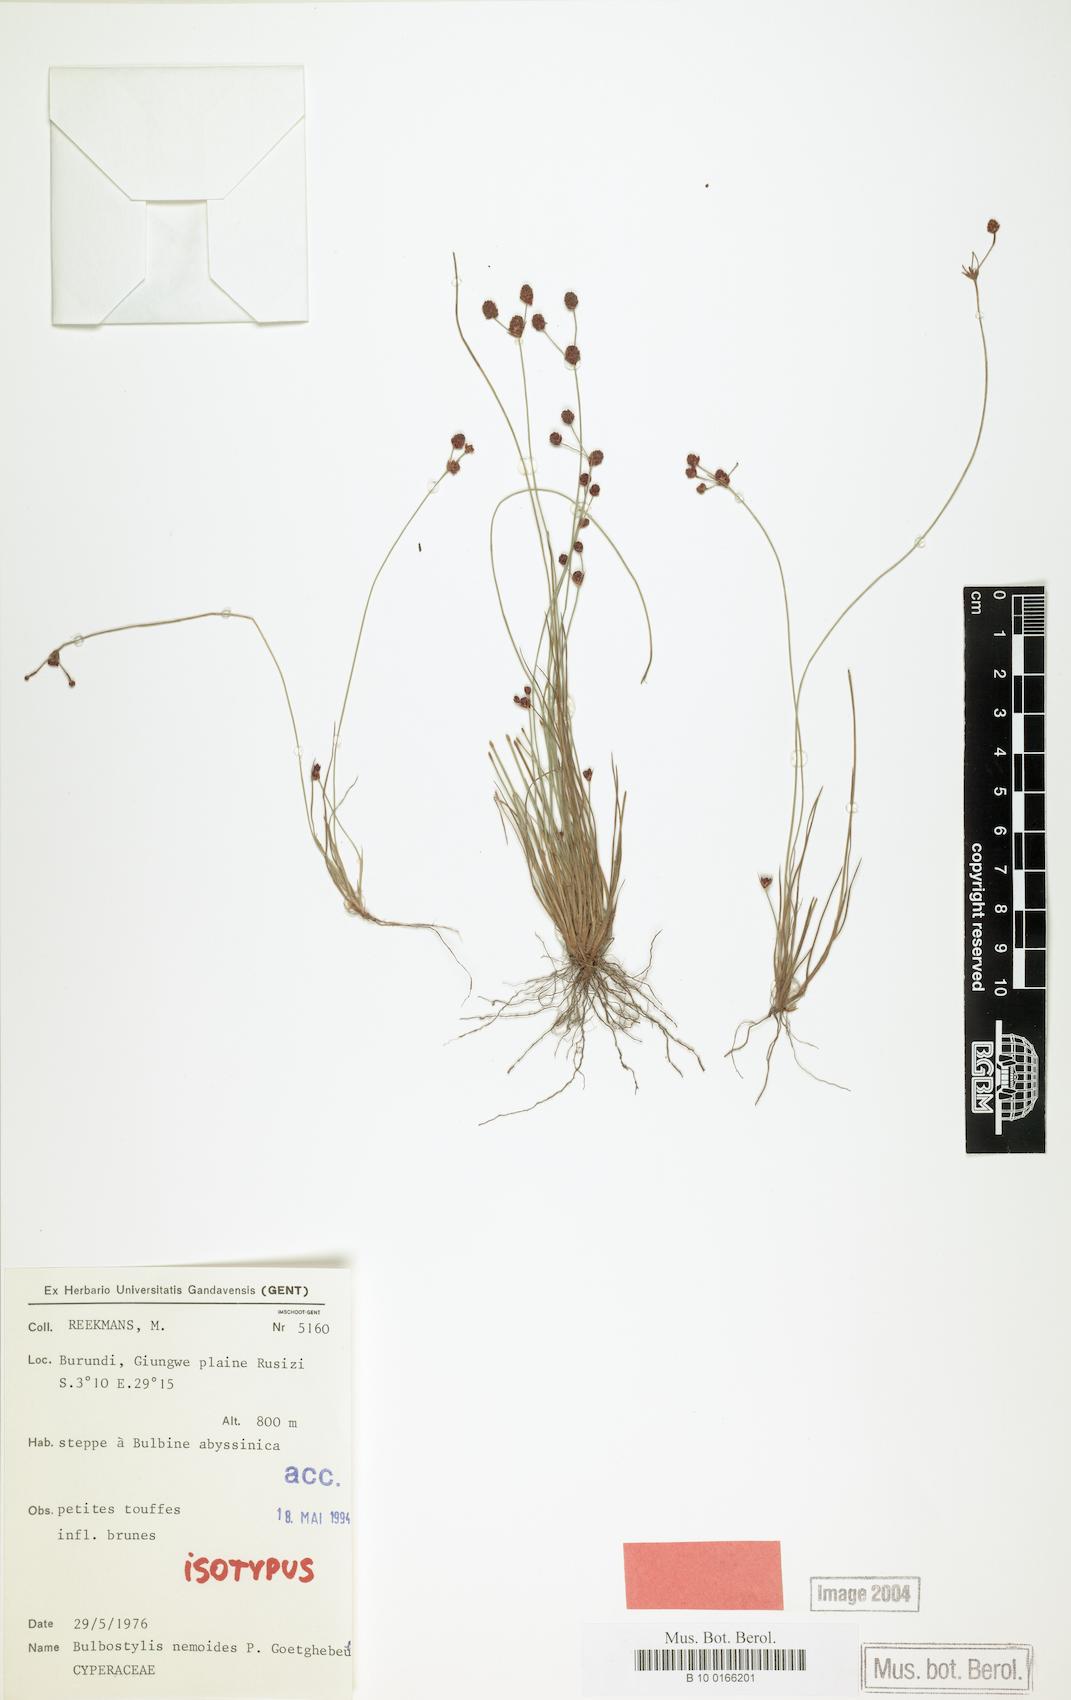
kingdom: Plantae
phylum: Tracheophyta
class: Liliopsida
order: Poales
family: Cyperaceae
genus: Bulbostylis
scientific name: Bulbostylis nemoides
